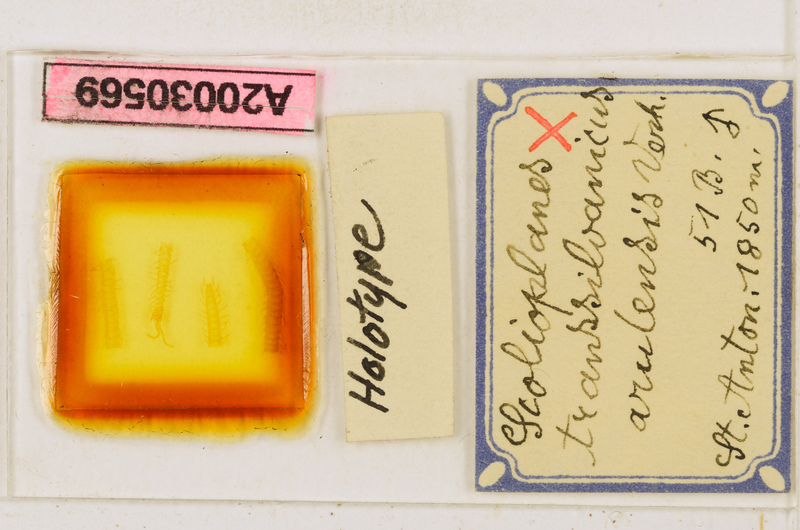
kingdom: Animalia
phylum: Arthropoda
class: Chilopoda
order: Geophilomorpha
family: Linotaeniidae
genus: Strigamia
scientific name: Strigamia transsilvanica
